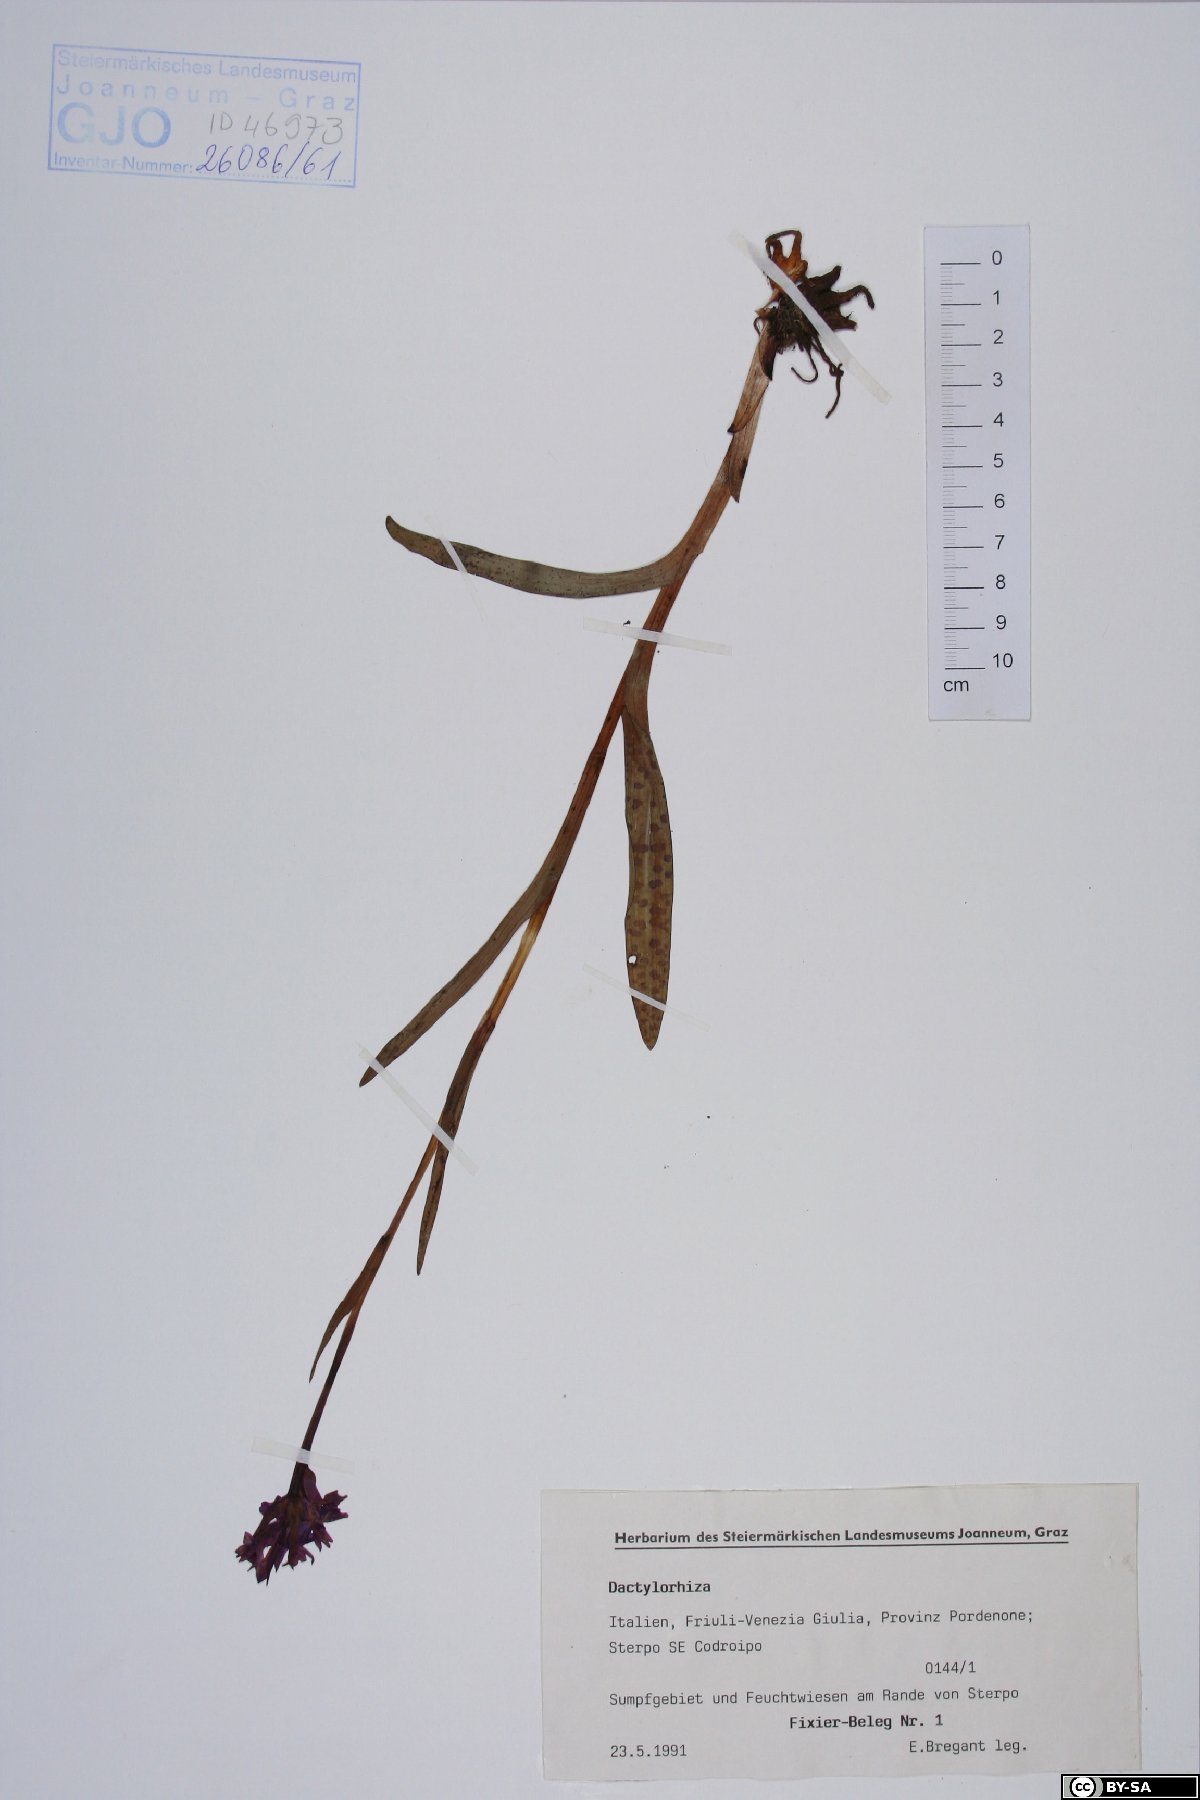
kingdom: Plantae
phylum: Tracheophyta
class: Liliopsida
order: Asparagales
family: Orchidaceae
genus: Dactylorhiza
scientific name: Dactylorhiza
